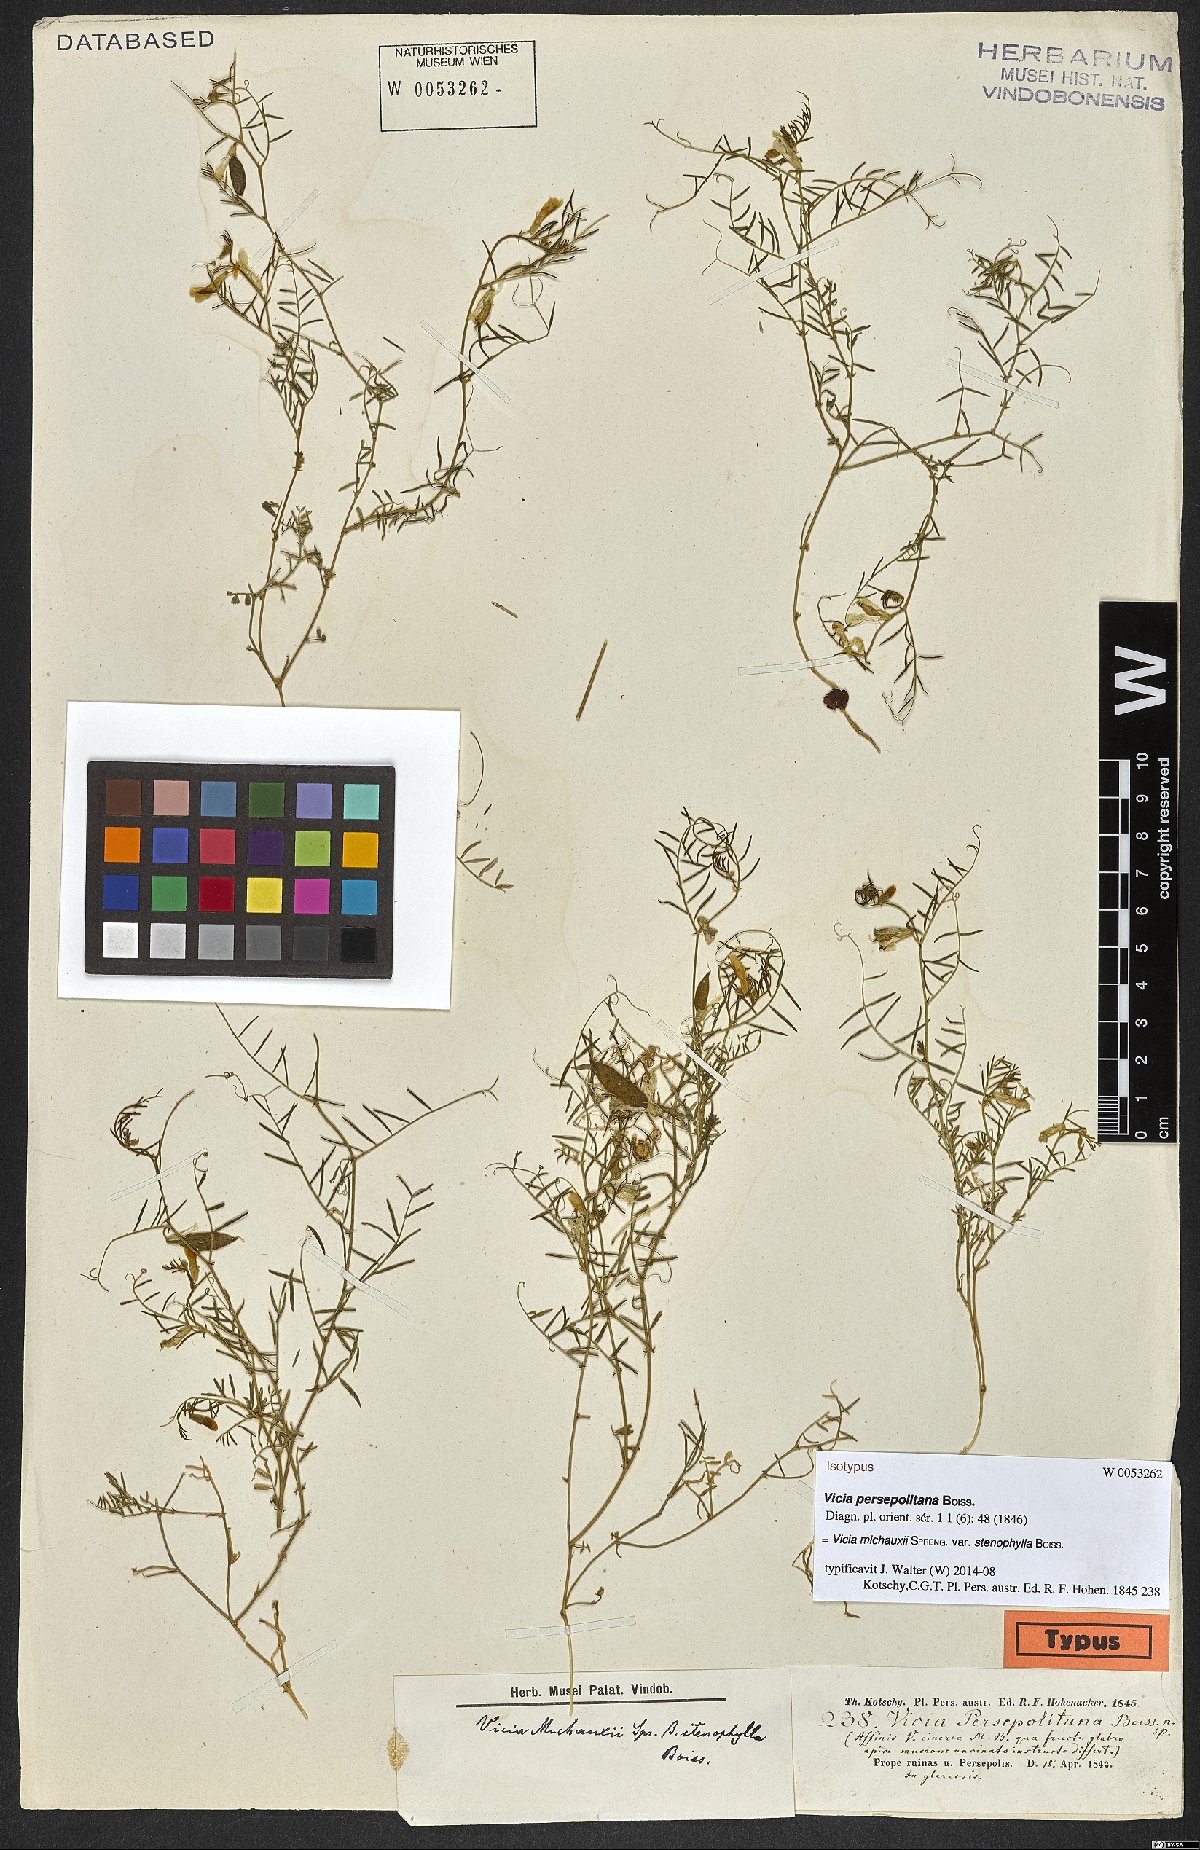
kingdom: Plantae
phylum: Tracheophyta
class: Magnoliopsida
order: Fabales
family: Fabaceae
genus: Vicia
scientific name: Vicia michauxii
